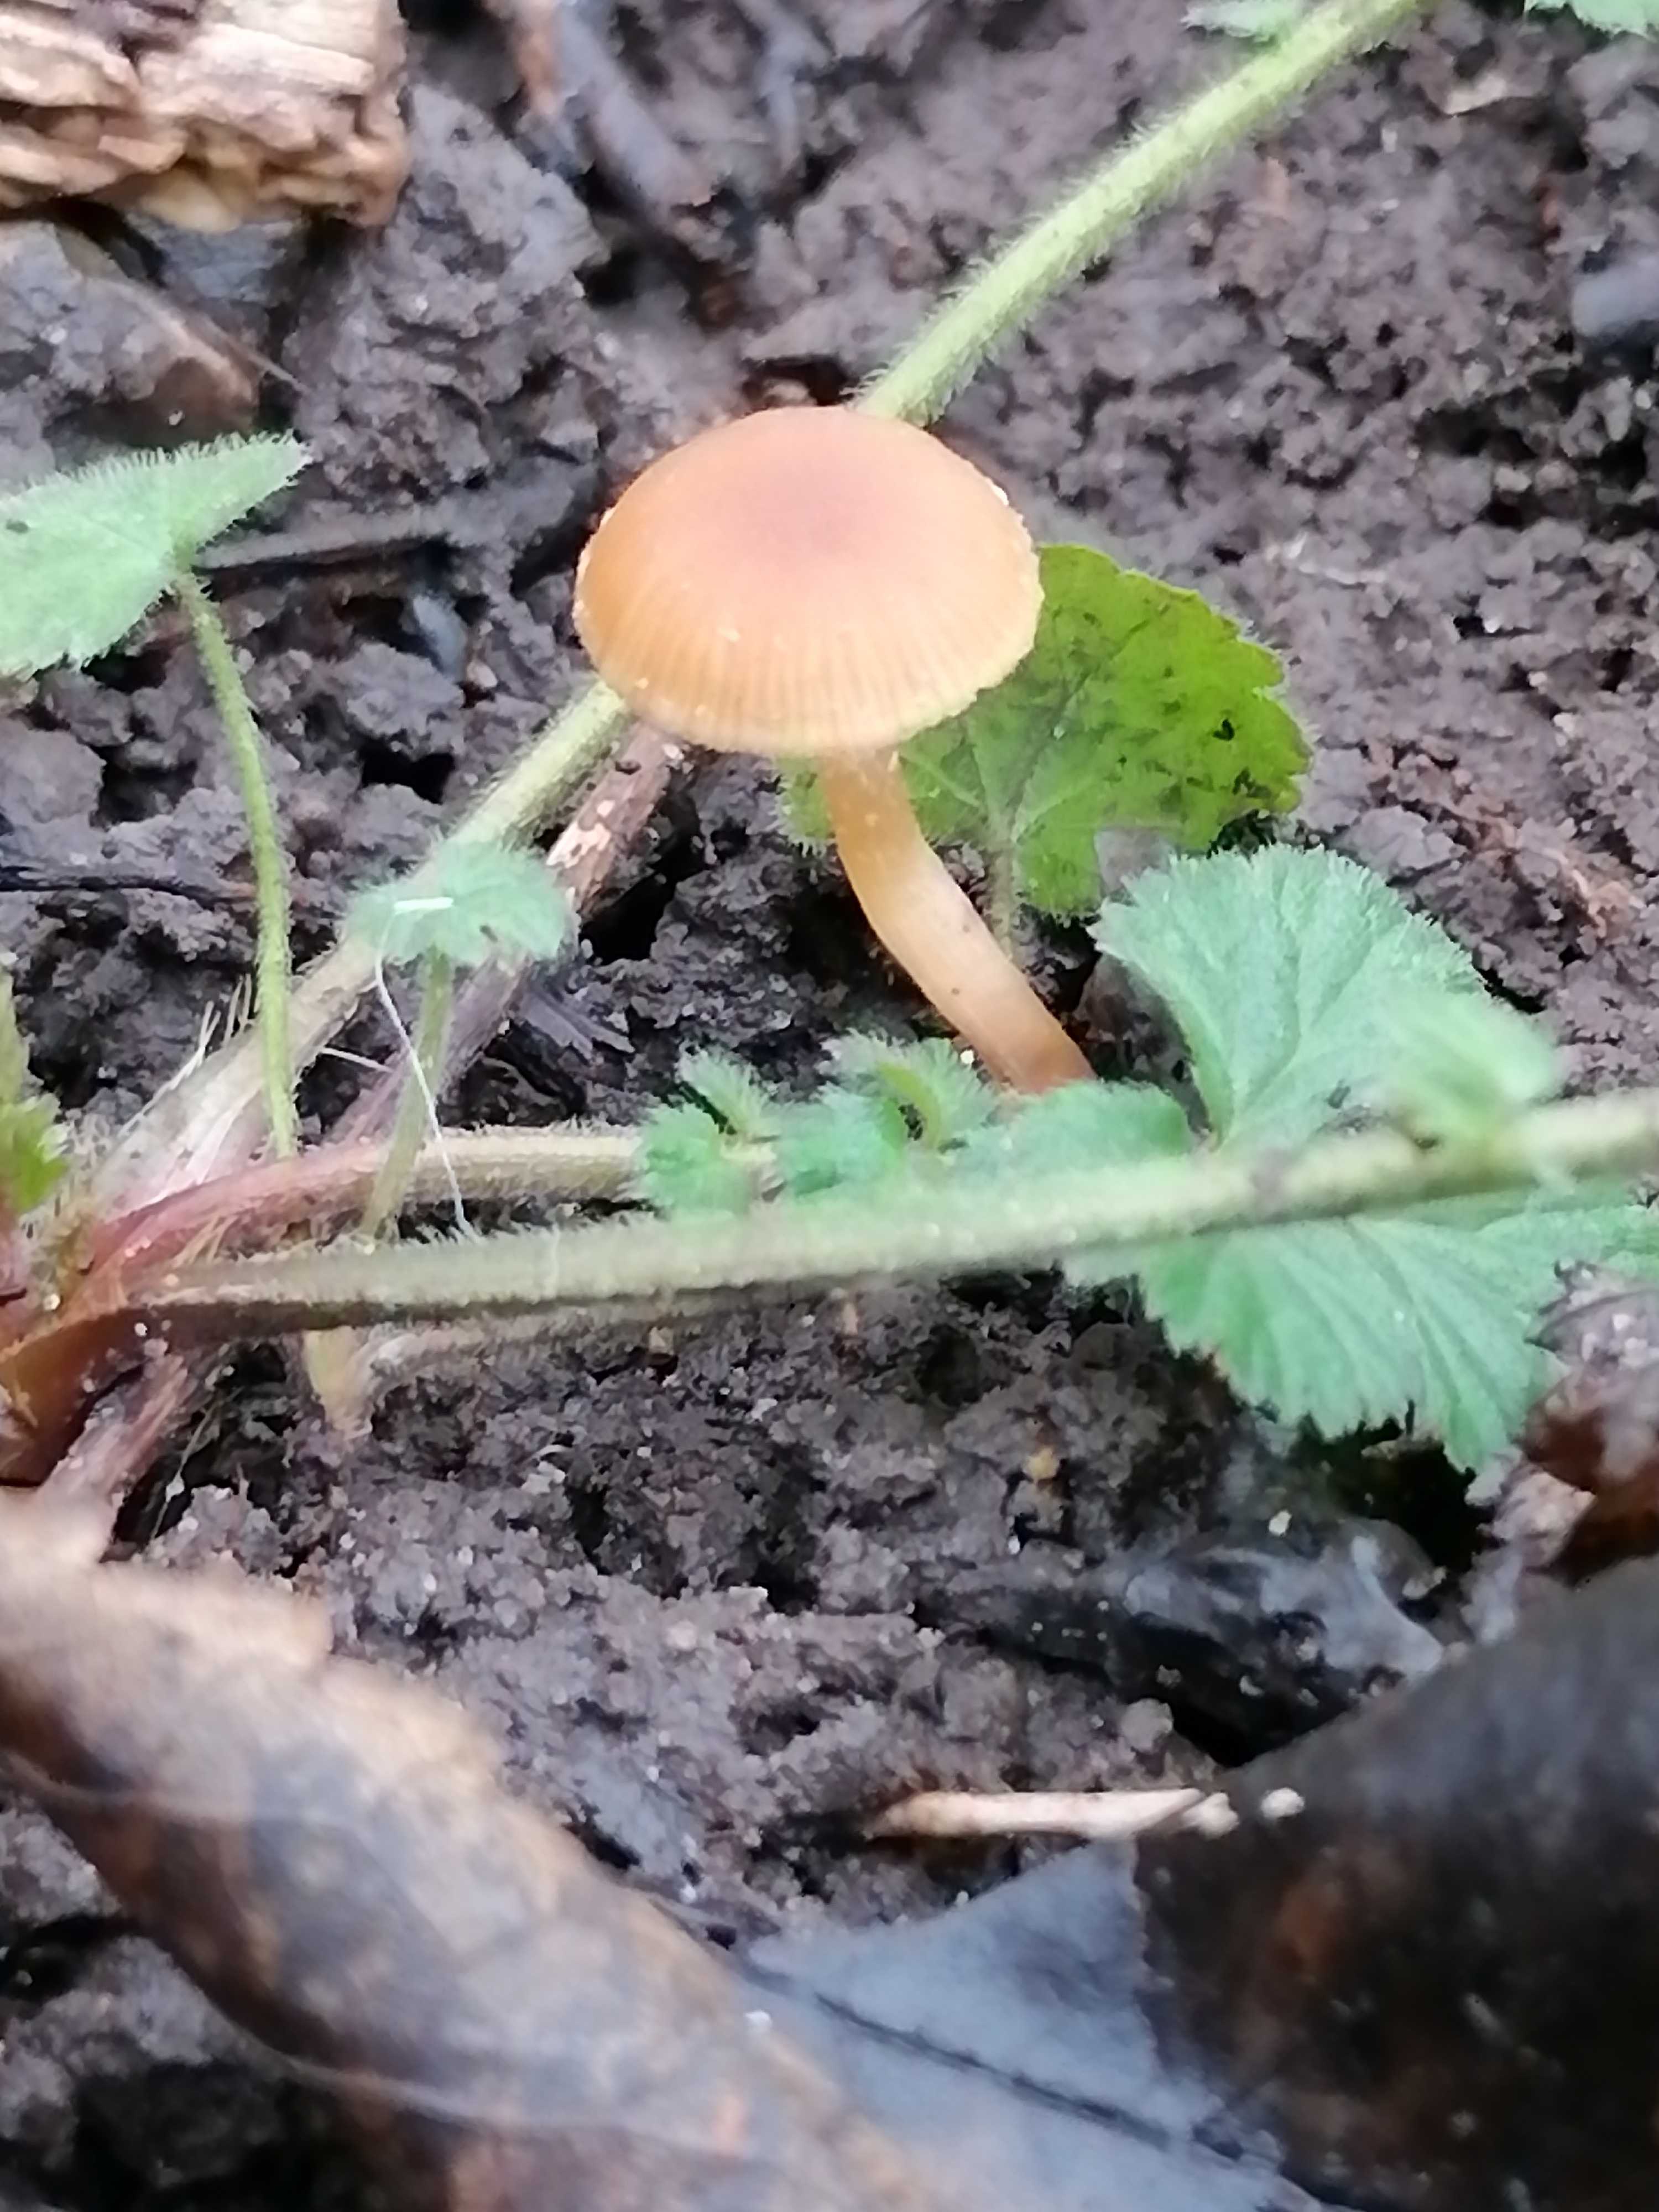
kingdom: Fungi
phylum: Basidiomycota
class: Agaricomycetes
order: Agaricales
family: Tubariaceae
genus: Tubaria
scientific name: Tubaria furfuracea
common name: kliddet fnughat
